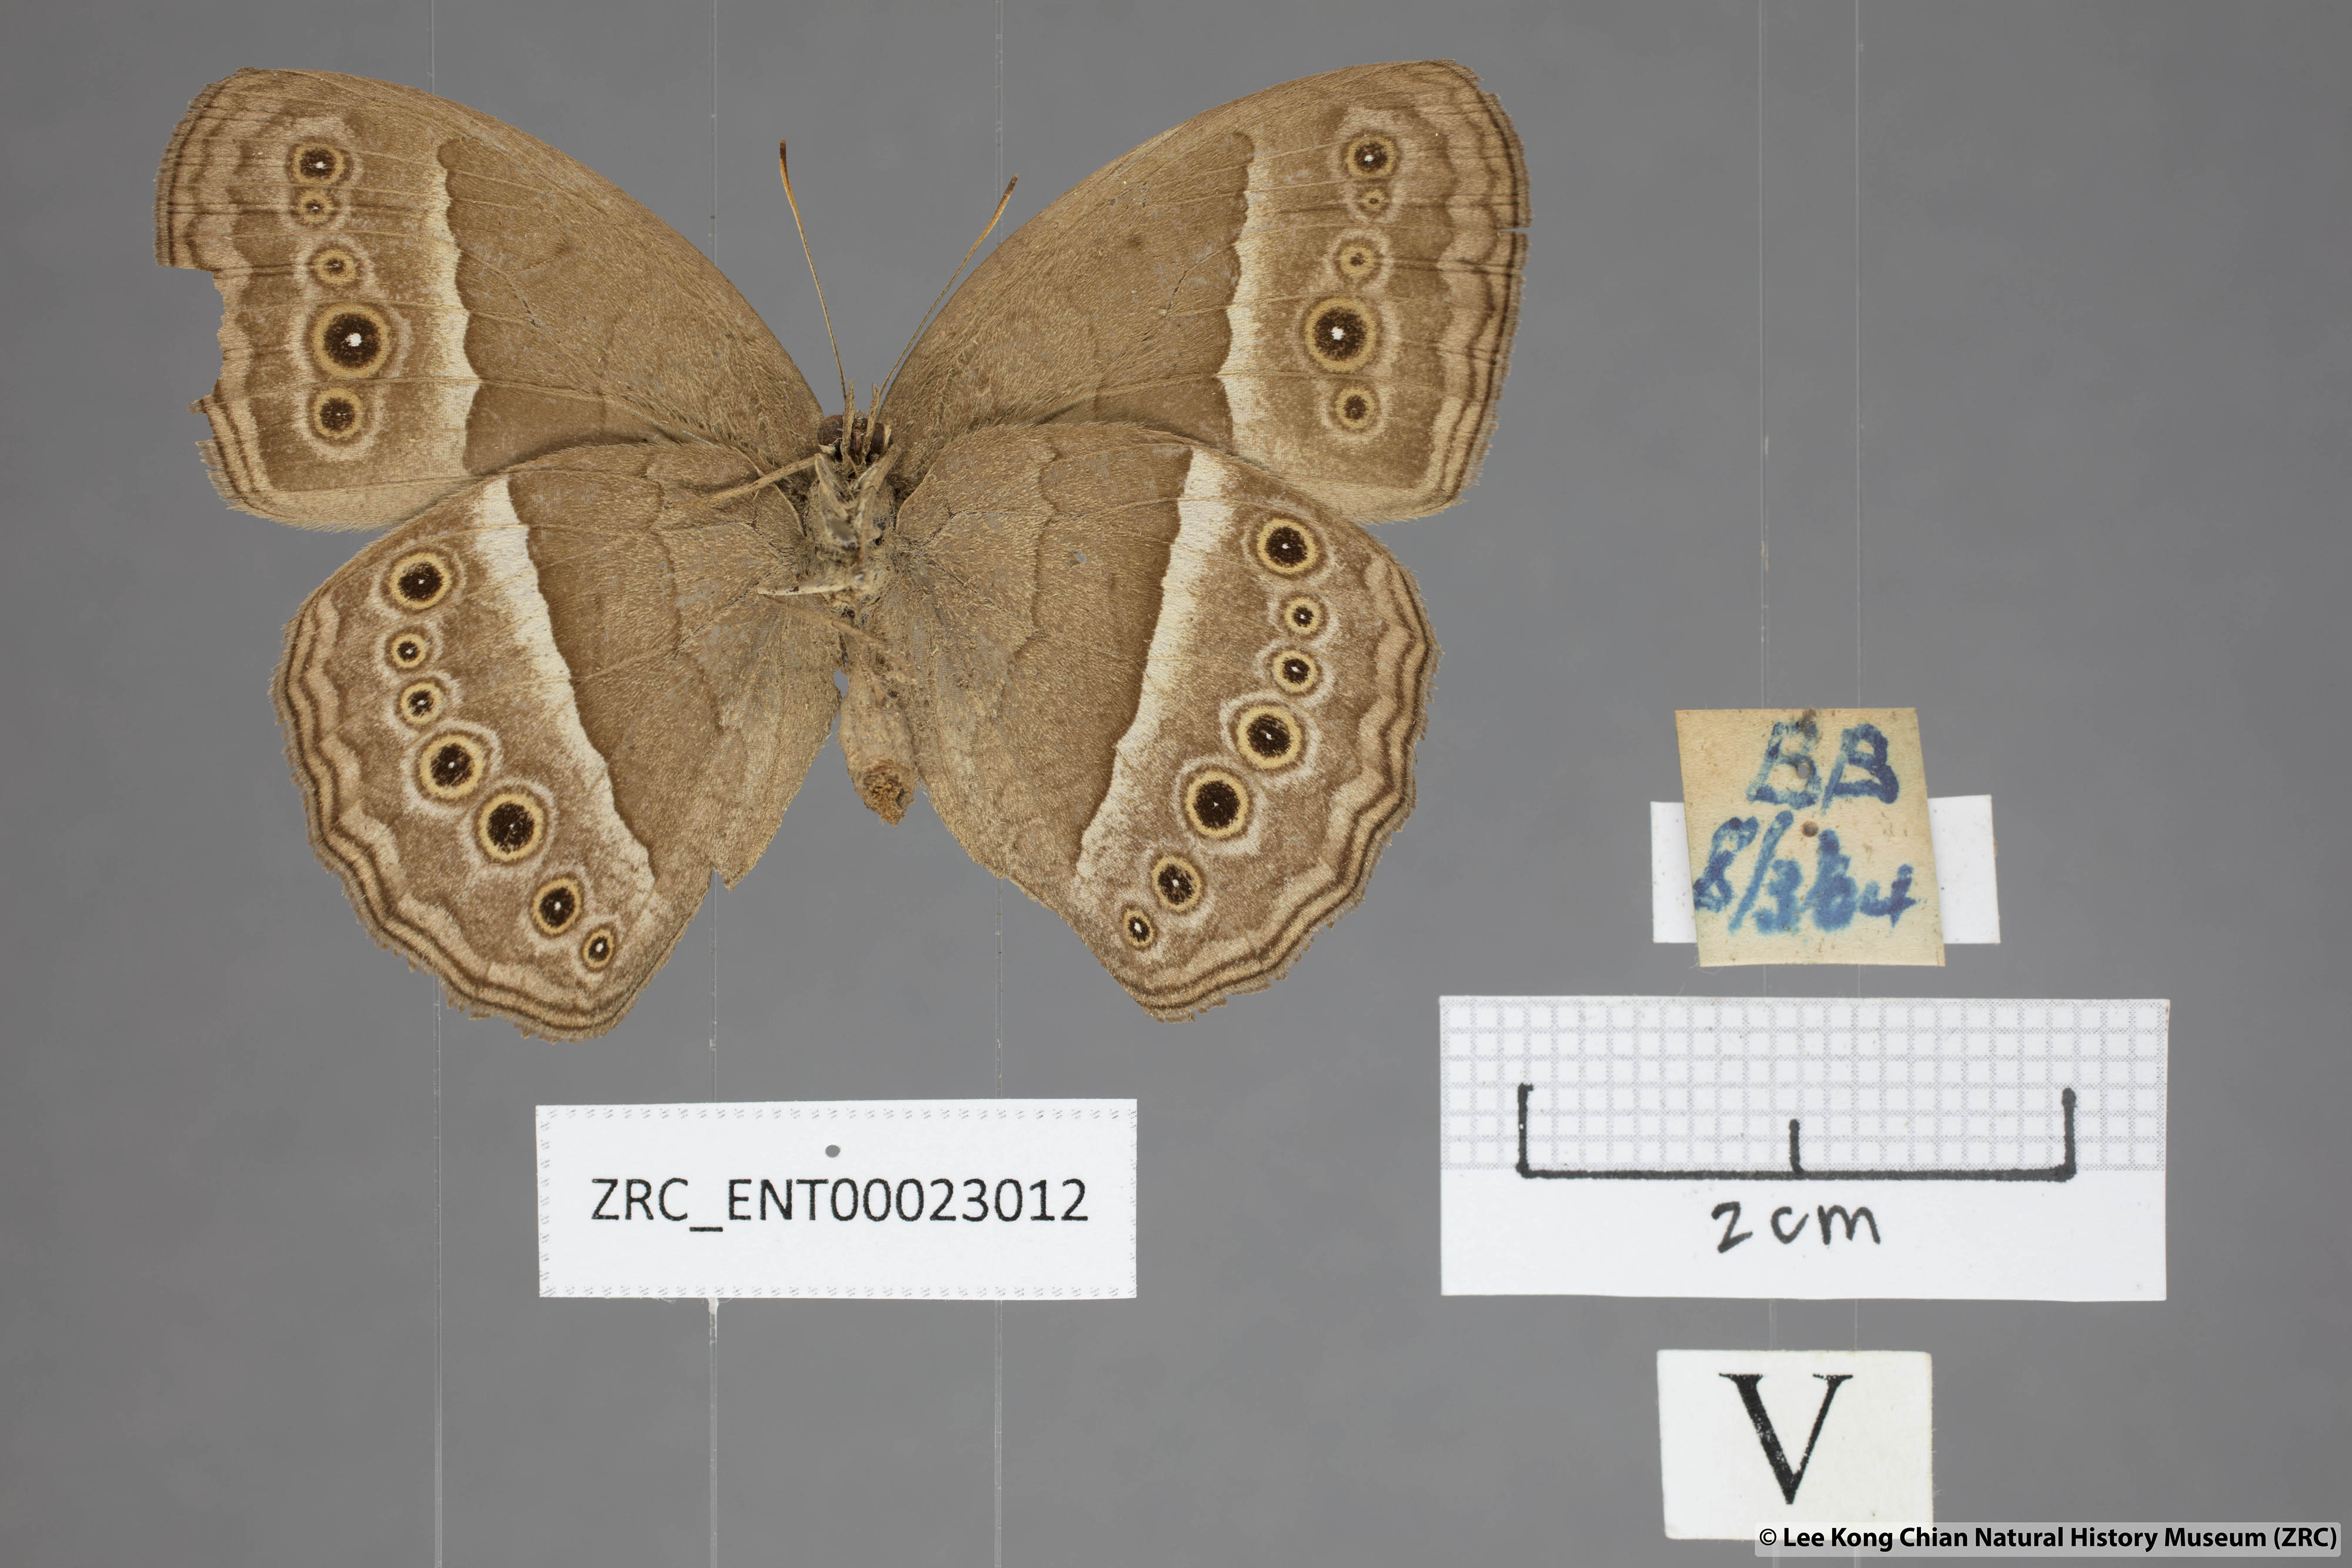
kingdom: Animalia
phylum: Arthropoda
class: Insecta
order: Lepidoptera
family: Nymphalidae
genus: Mycalesis
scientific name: Mycalesis visala
